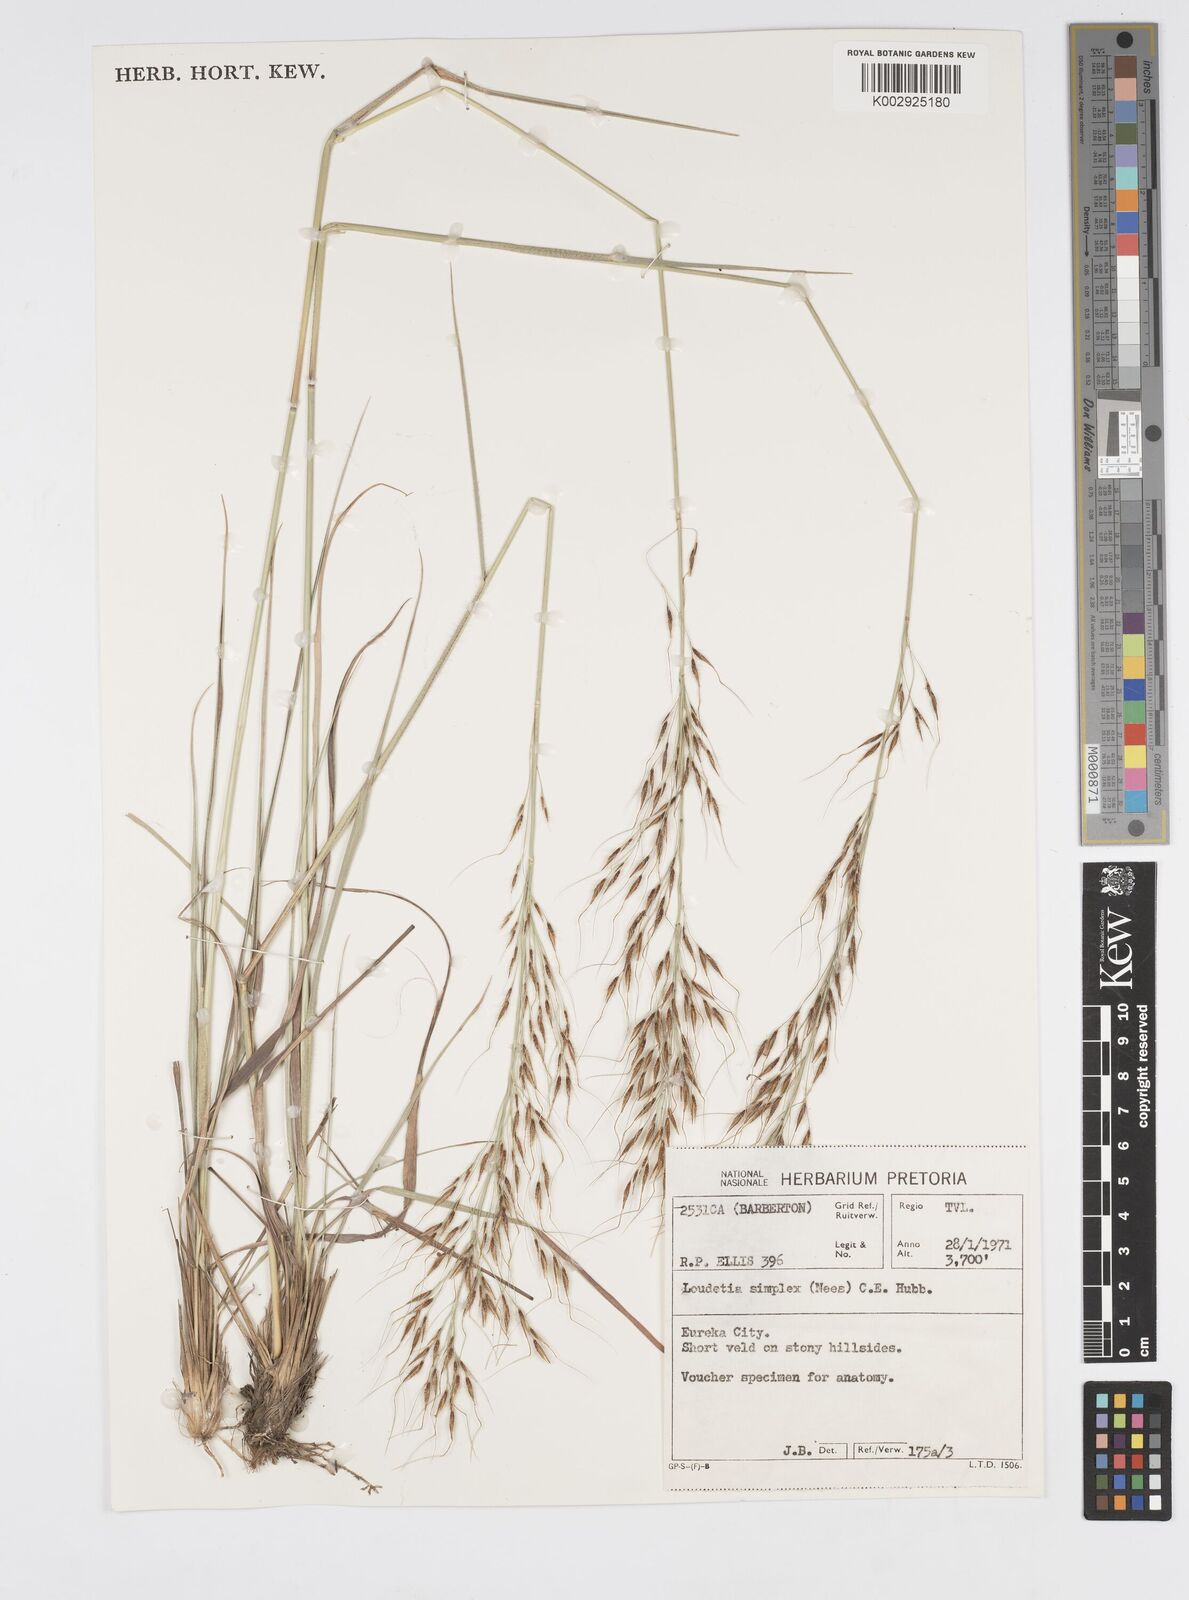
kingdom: Plantae
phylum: Tracheophyta
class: Liliopsida
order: Poales
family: Poaceae
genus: Loudetia
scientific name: Loudetia simplex
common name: Common russet grass
